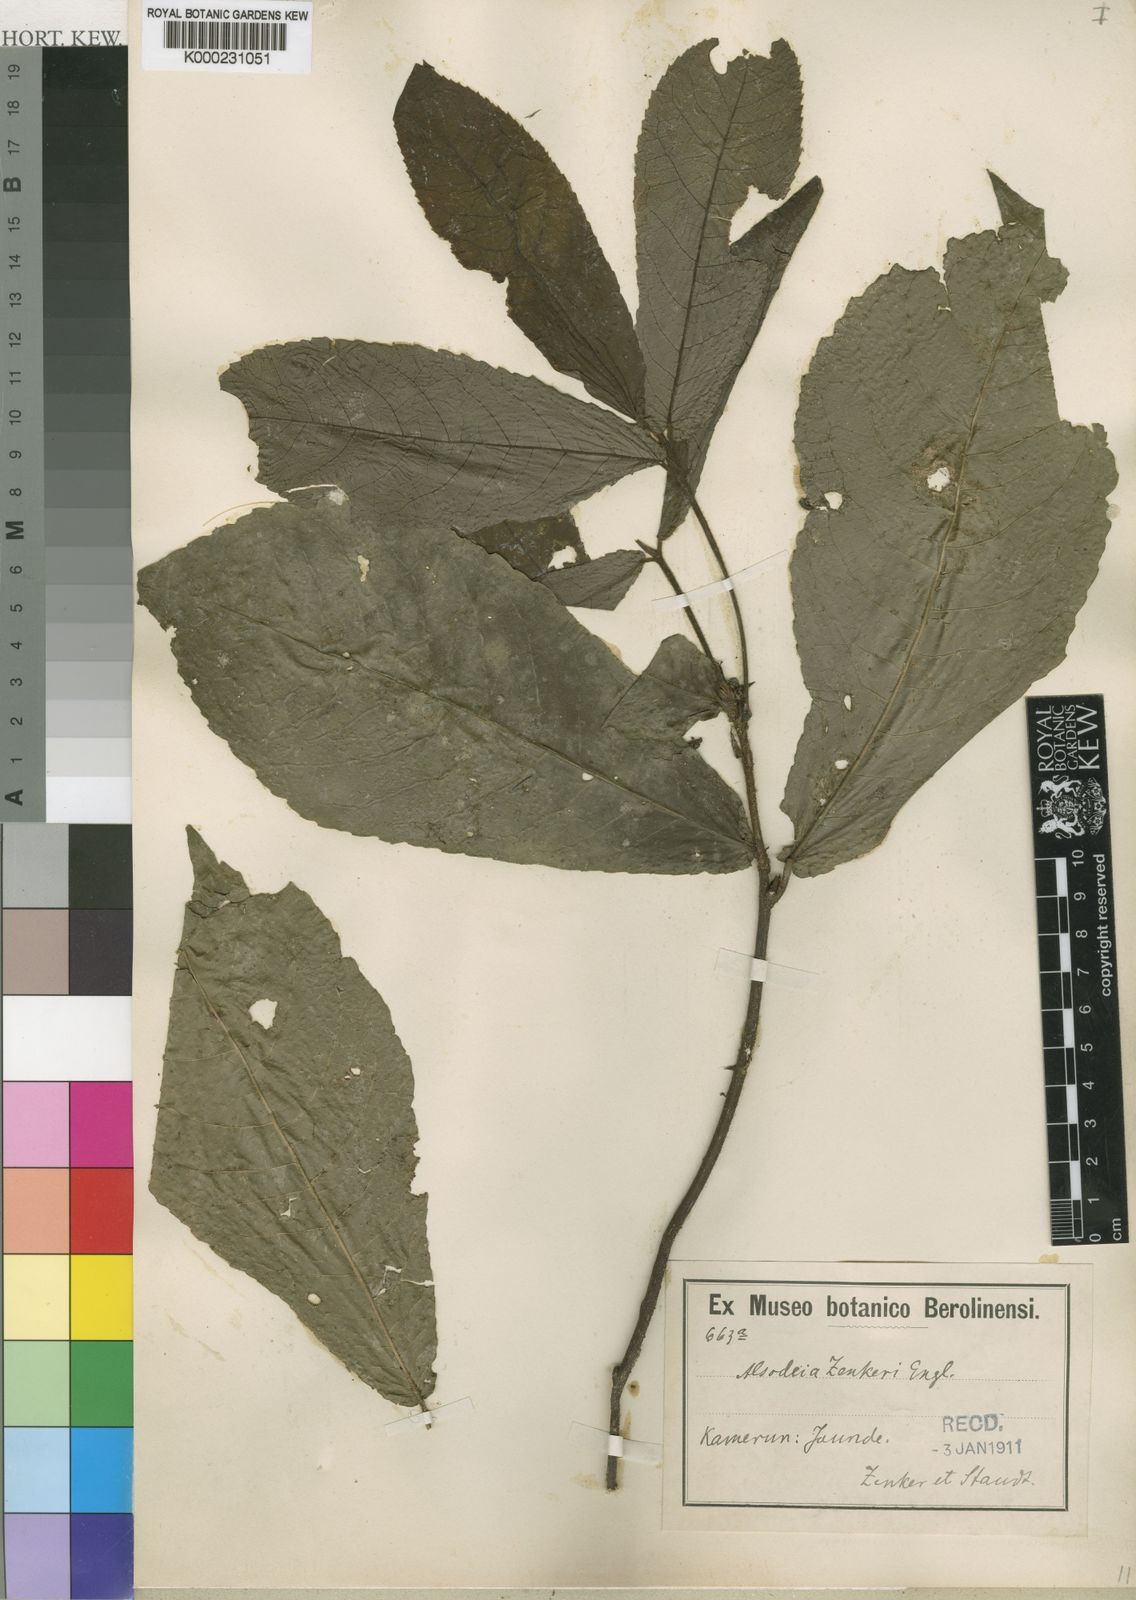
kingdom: Plantae
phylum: Tracheophyta
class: Magnoliopsida
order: Malpighiales
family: Violaceae
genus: Rinorea
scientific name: Rinorea zenkeri
